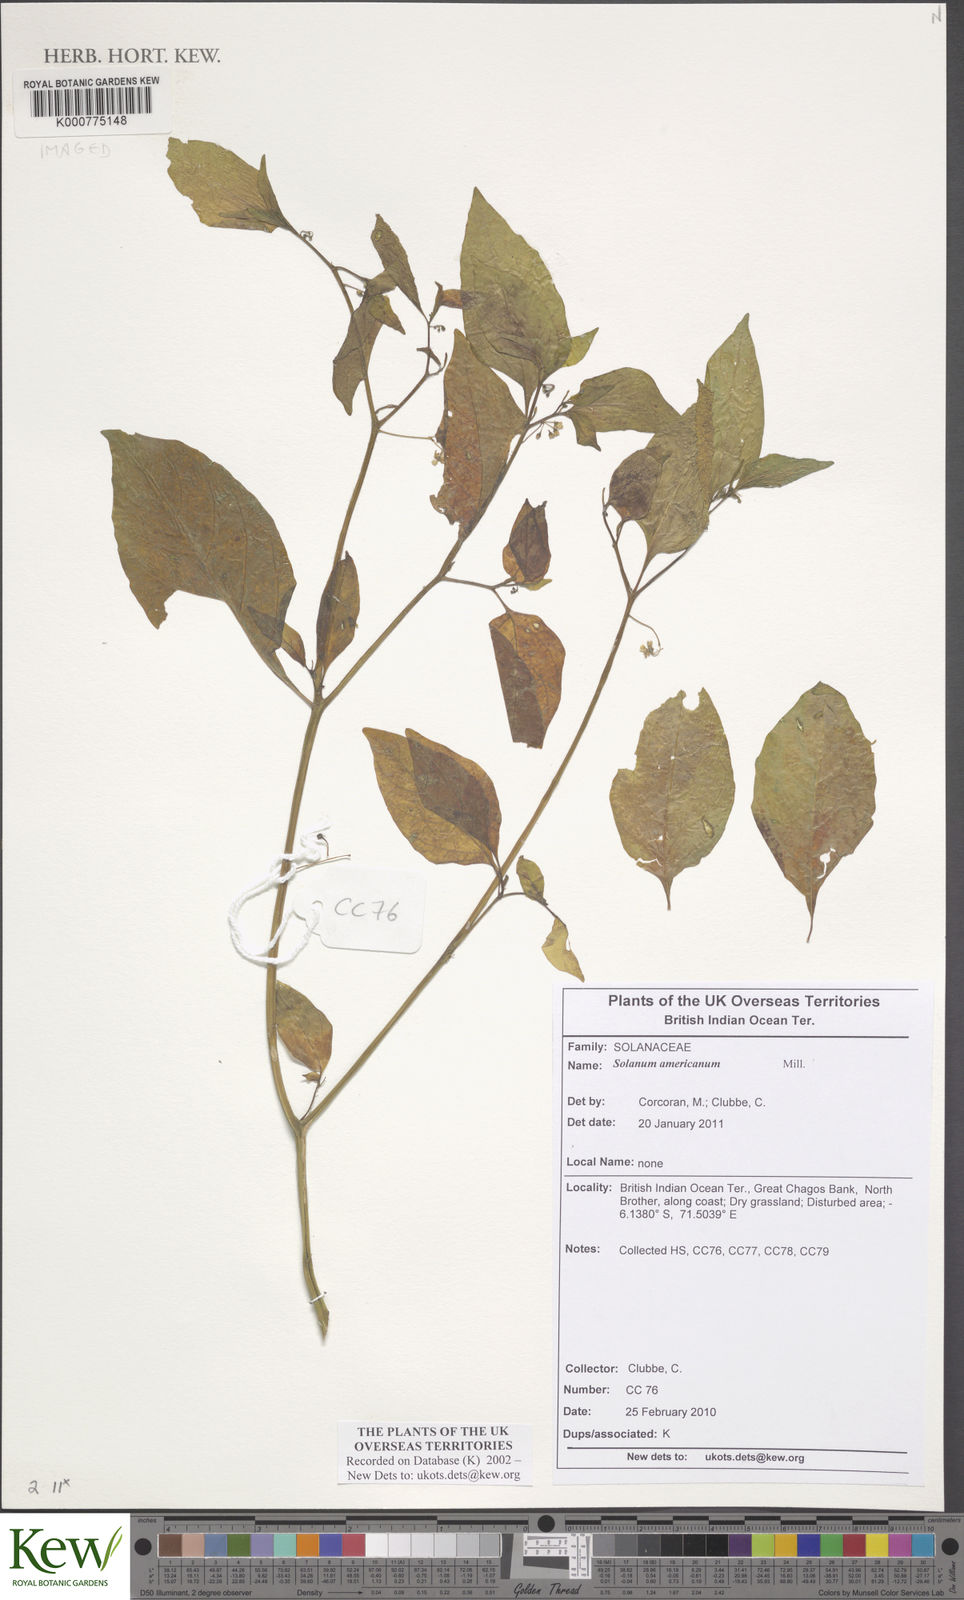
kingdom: Plantae
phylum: Tracheophyta
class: Magnoliopsida
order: Solanales
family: Solanaceae
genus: Solanum
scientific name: Solanum americanum
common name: American black nightshade
